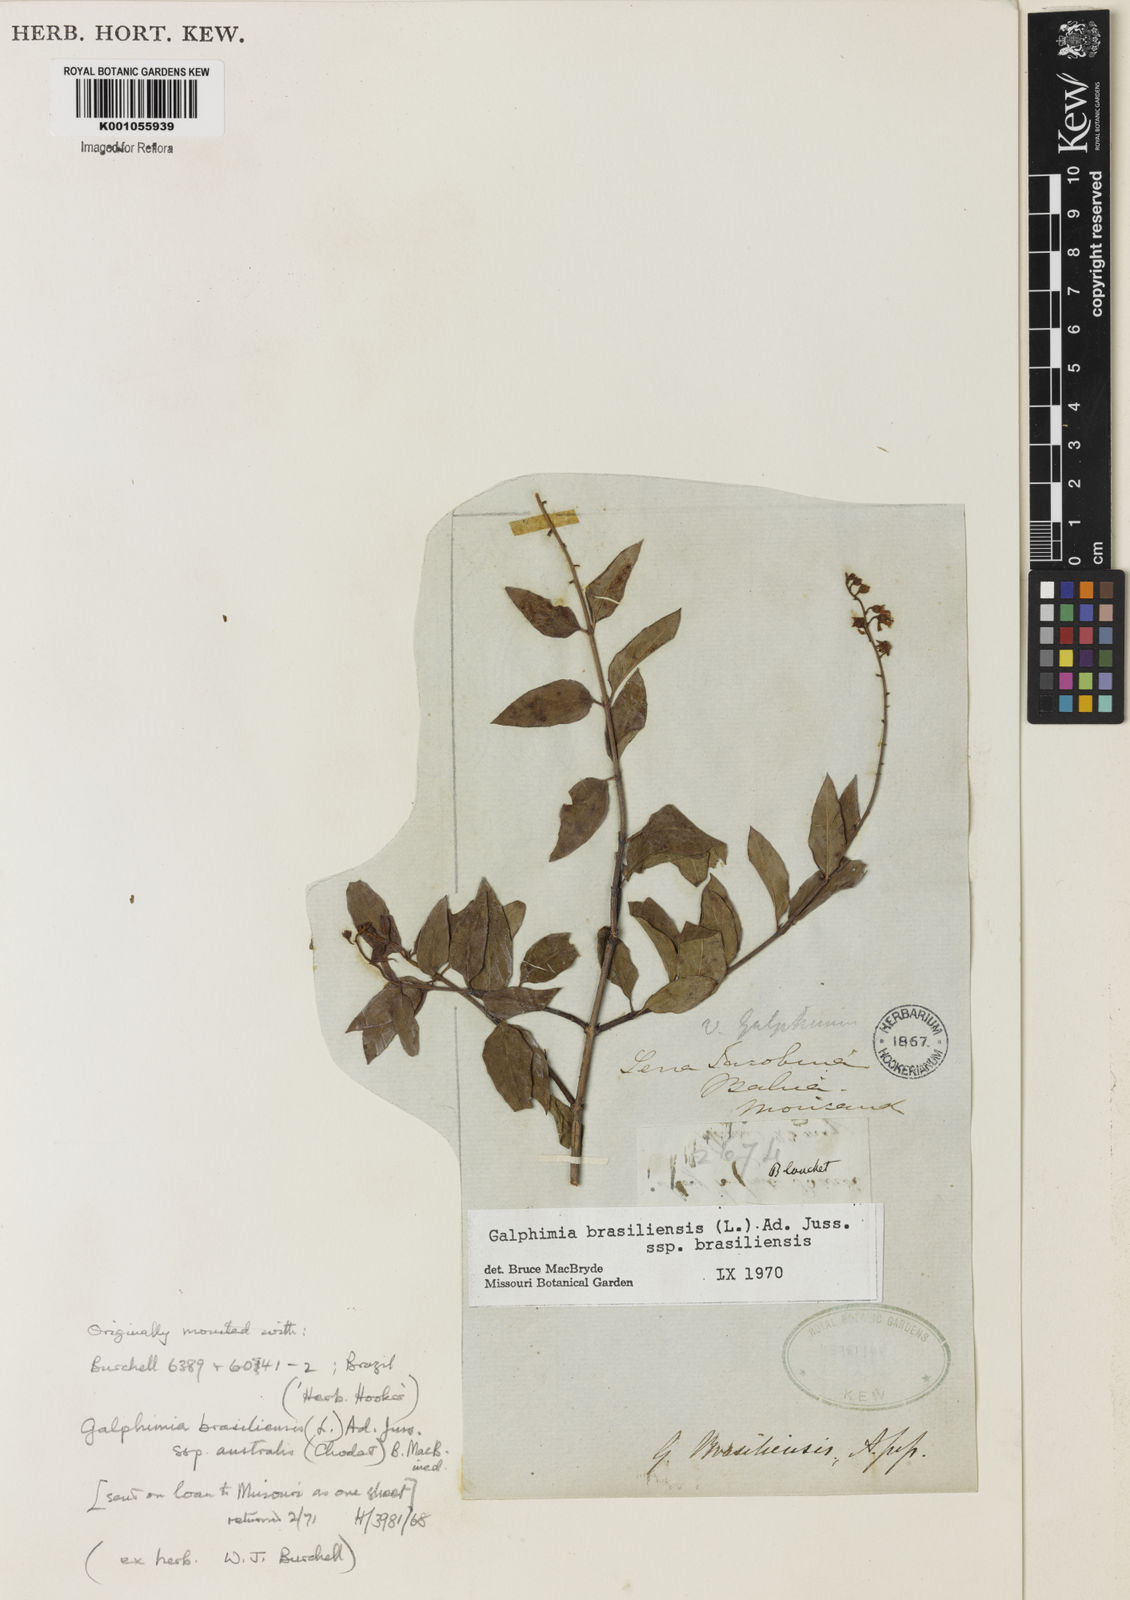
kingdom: Plantae
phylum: Tracheophyta
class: Magnoliopsida
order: Malpighiales
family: Malpighiaceae
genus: Galphimia
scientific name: Galphimia brasiliensis
